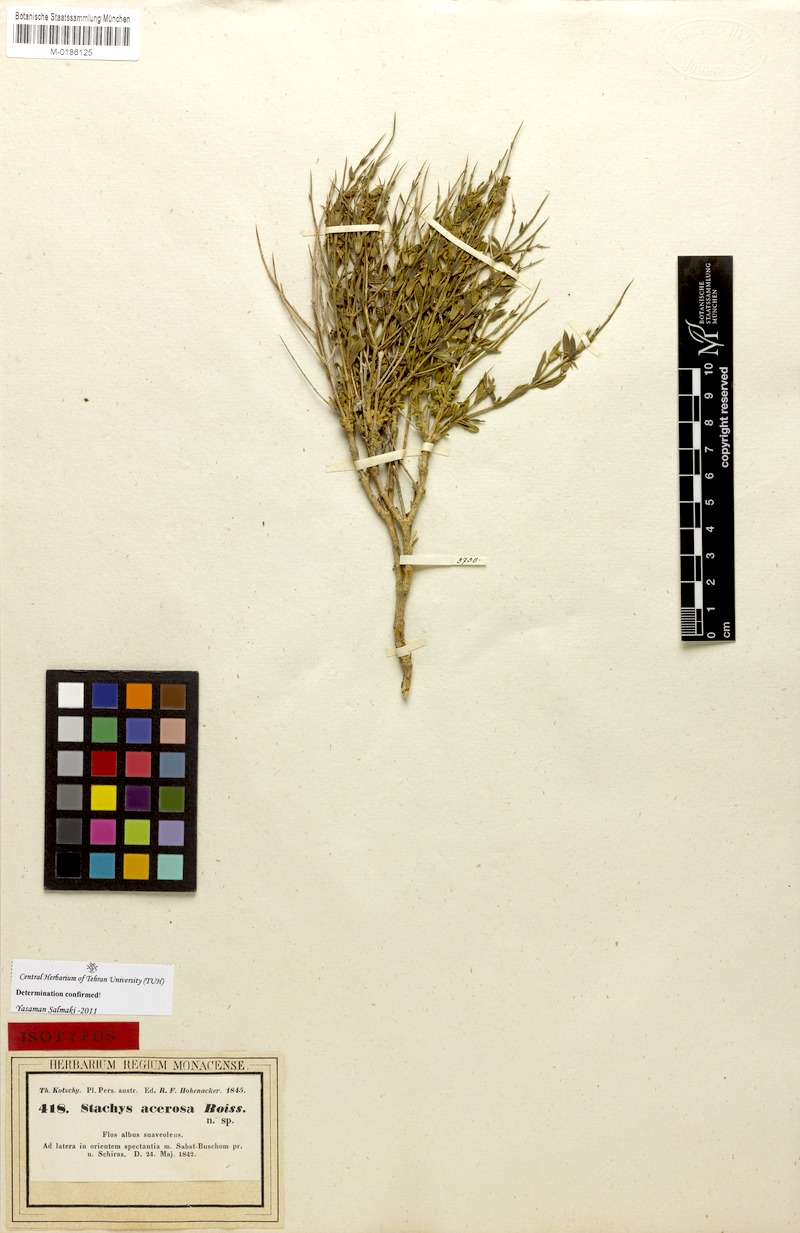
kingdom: Plantae
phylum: Tracheophyta
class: Magnoliopsida
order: Lamiales
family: Lamiaceae
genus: Stachys
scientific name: Stachys acerosa
